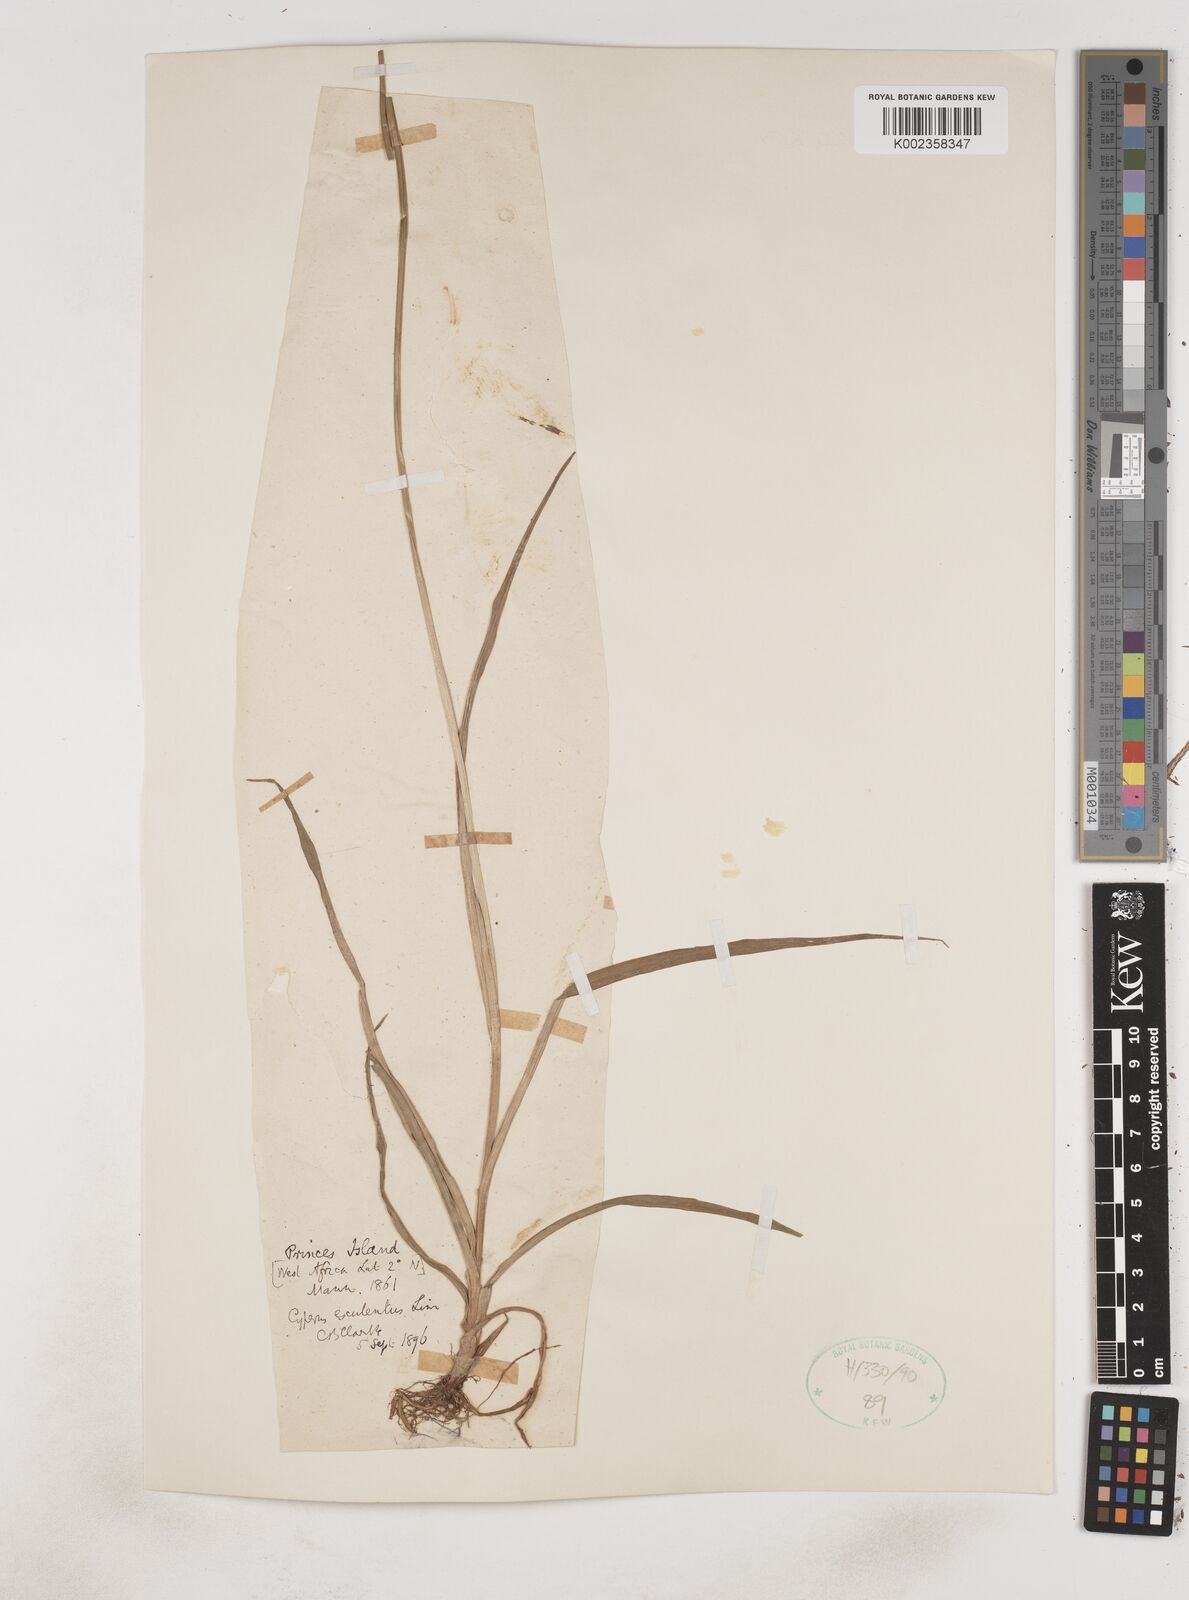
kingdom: Plantae
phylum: Tracheophyta
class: Liliopsida
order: Poales
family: Cyperaceae
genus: Cyperus
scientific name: Cyperus esculentus
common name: Yellow nutsedge
